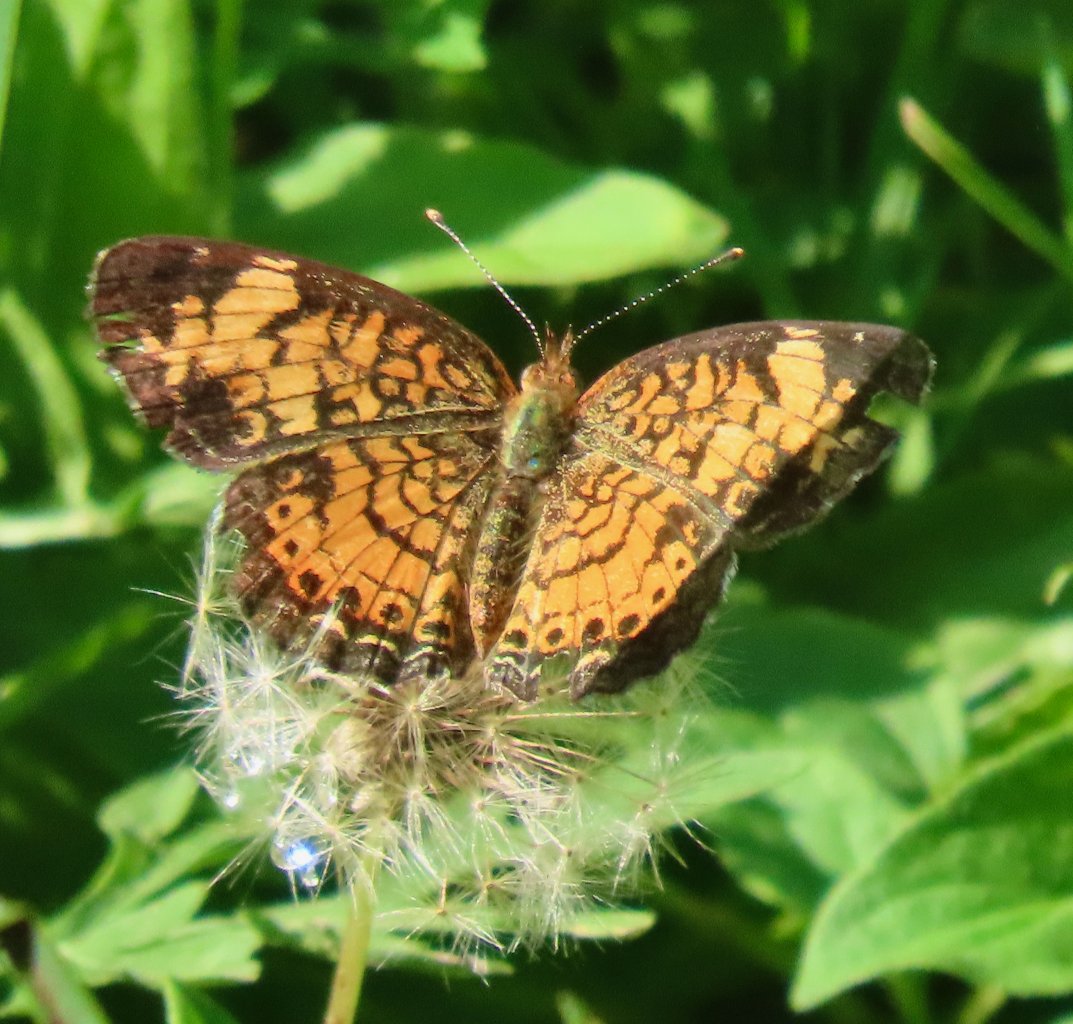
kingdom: Animalia
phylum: Arthropoda
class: Insecta
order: Lepidoptera
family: Nymphalidae
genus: Phyciodes
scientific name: Phyciodes tharos
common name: Pearl Crescent
